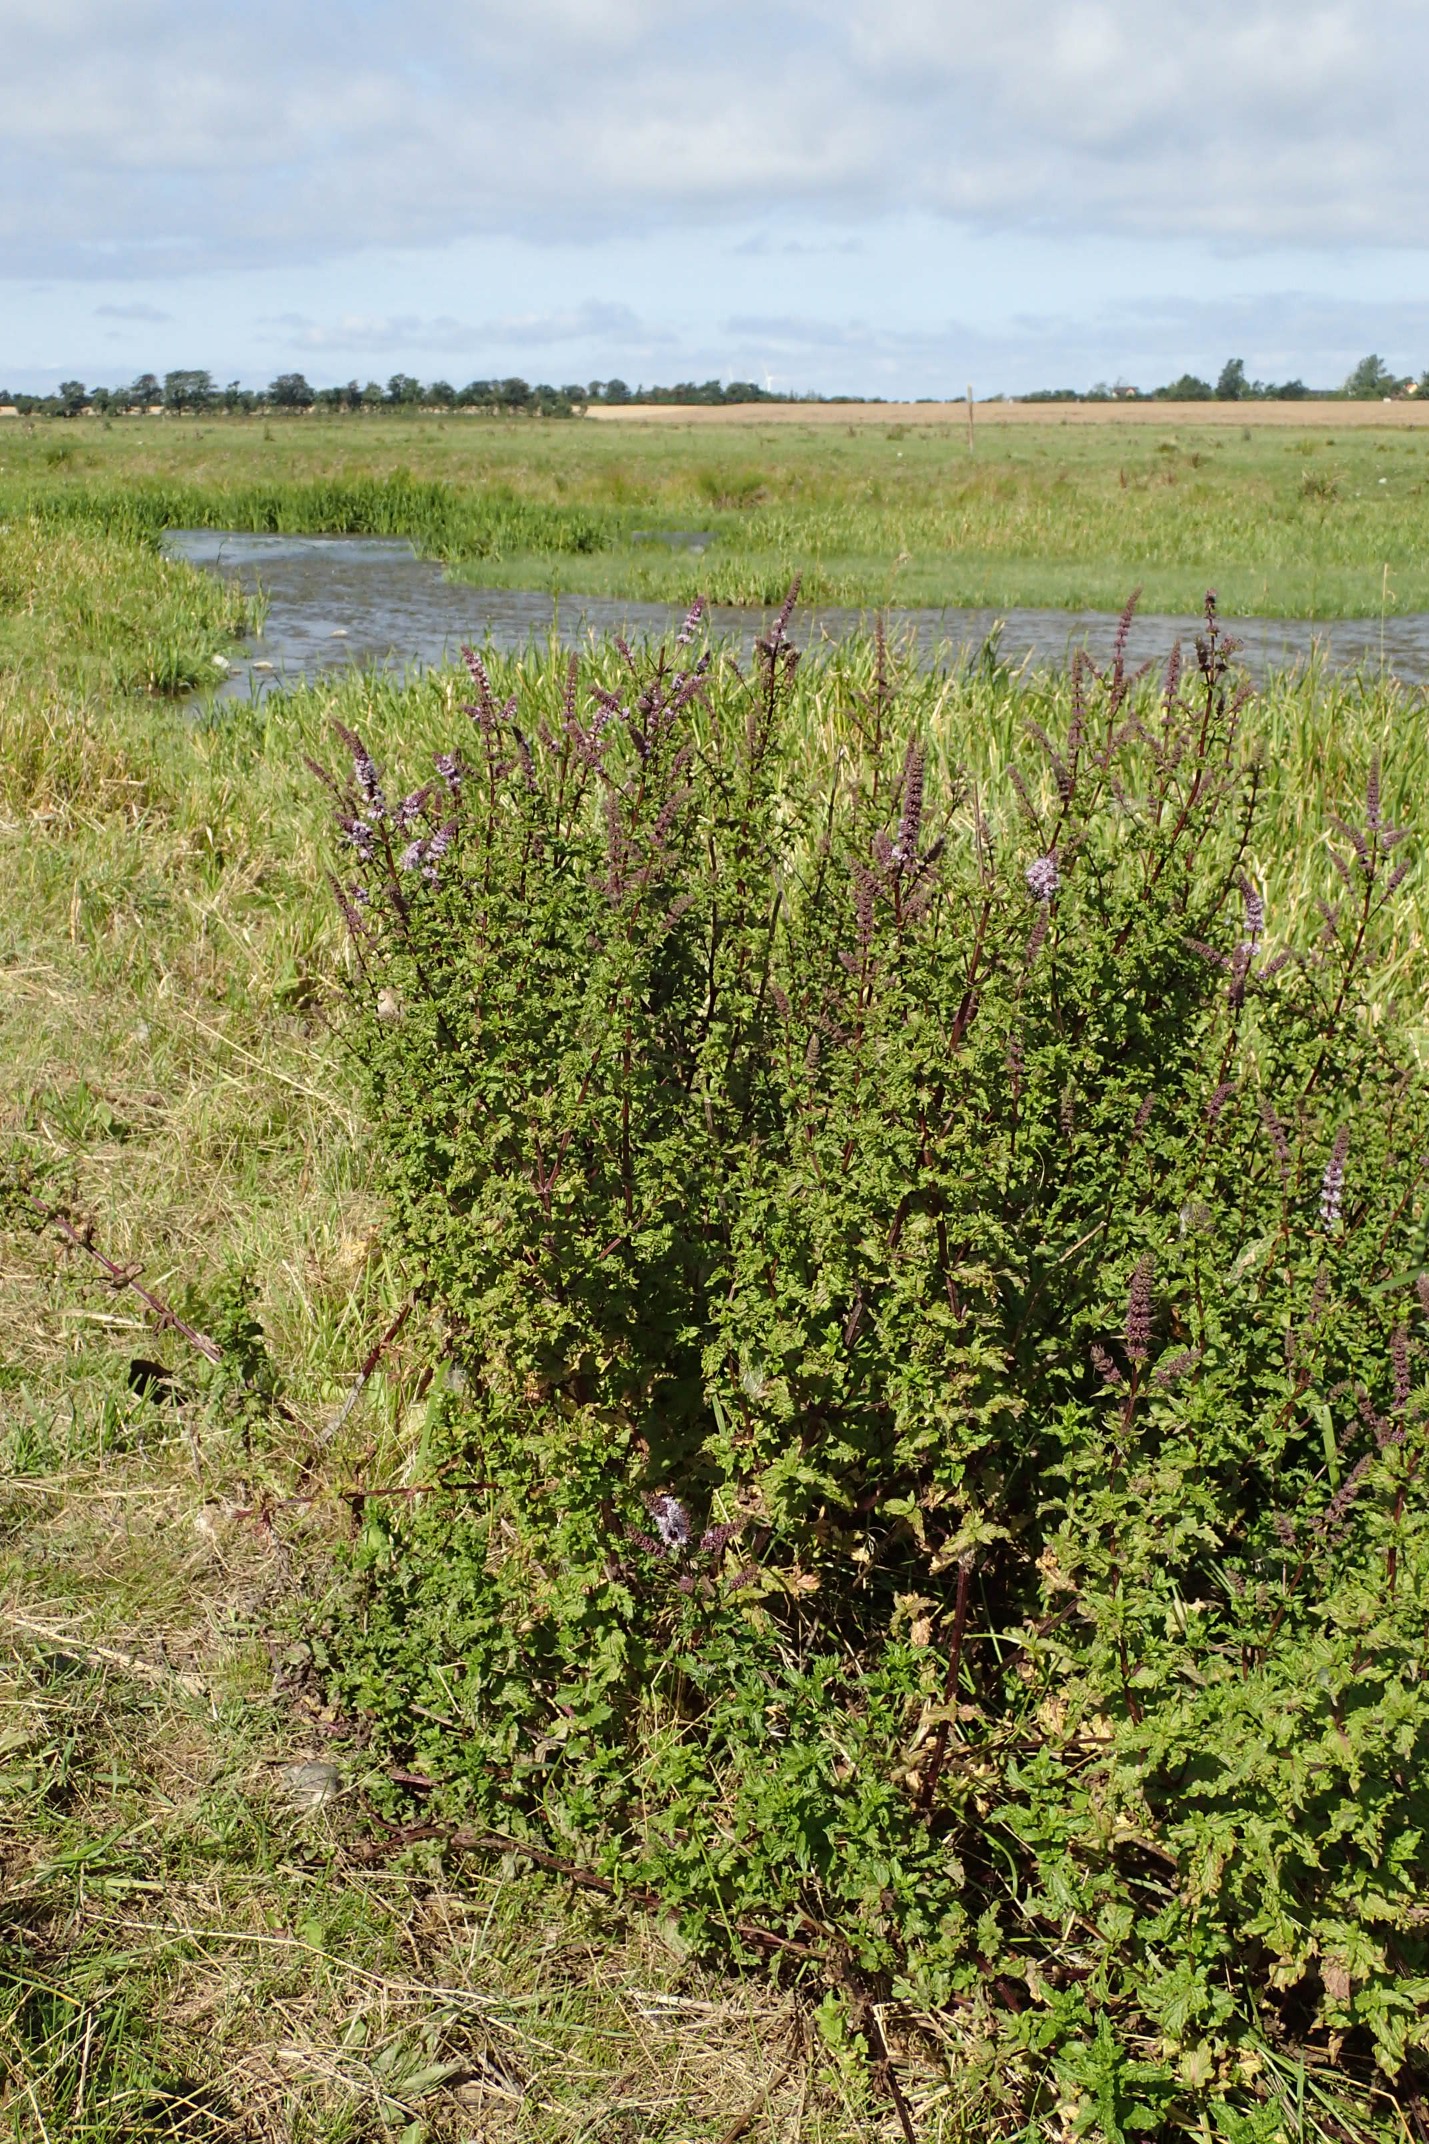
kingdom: Plantae
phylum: Tracheophyta
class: Magnoliopsida
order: Lamiales
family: Lamiaceae
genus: Mentha
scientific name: Mentha spicata
